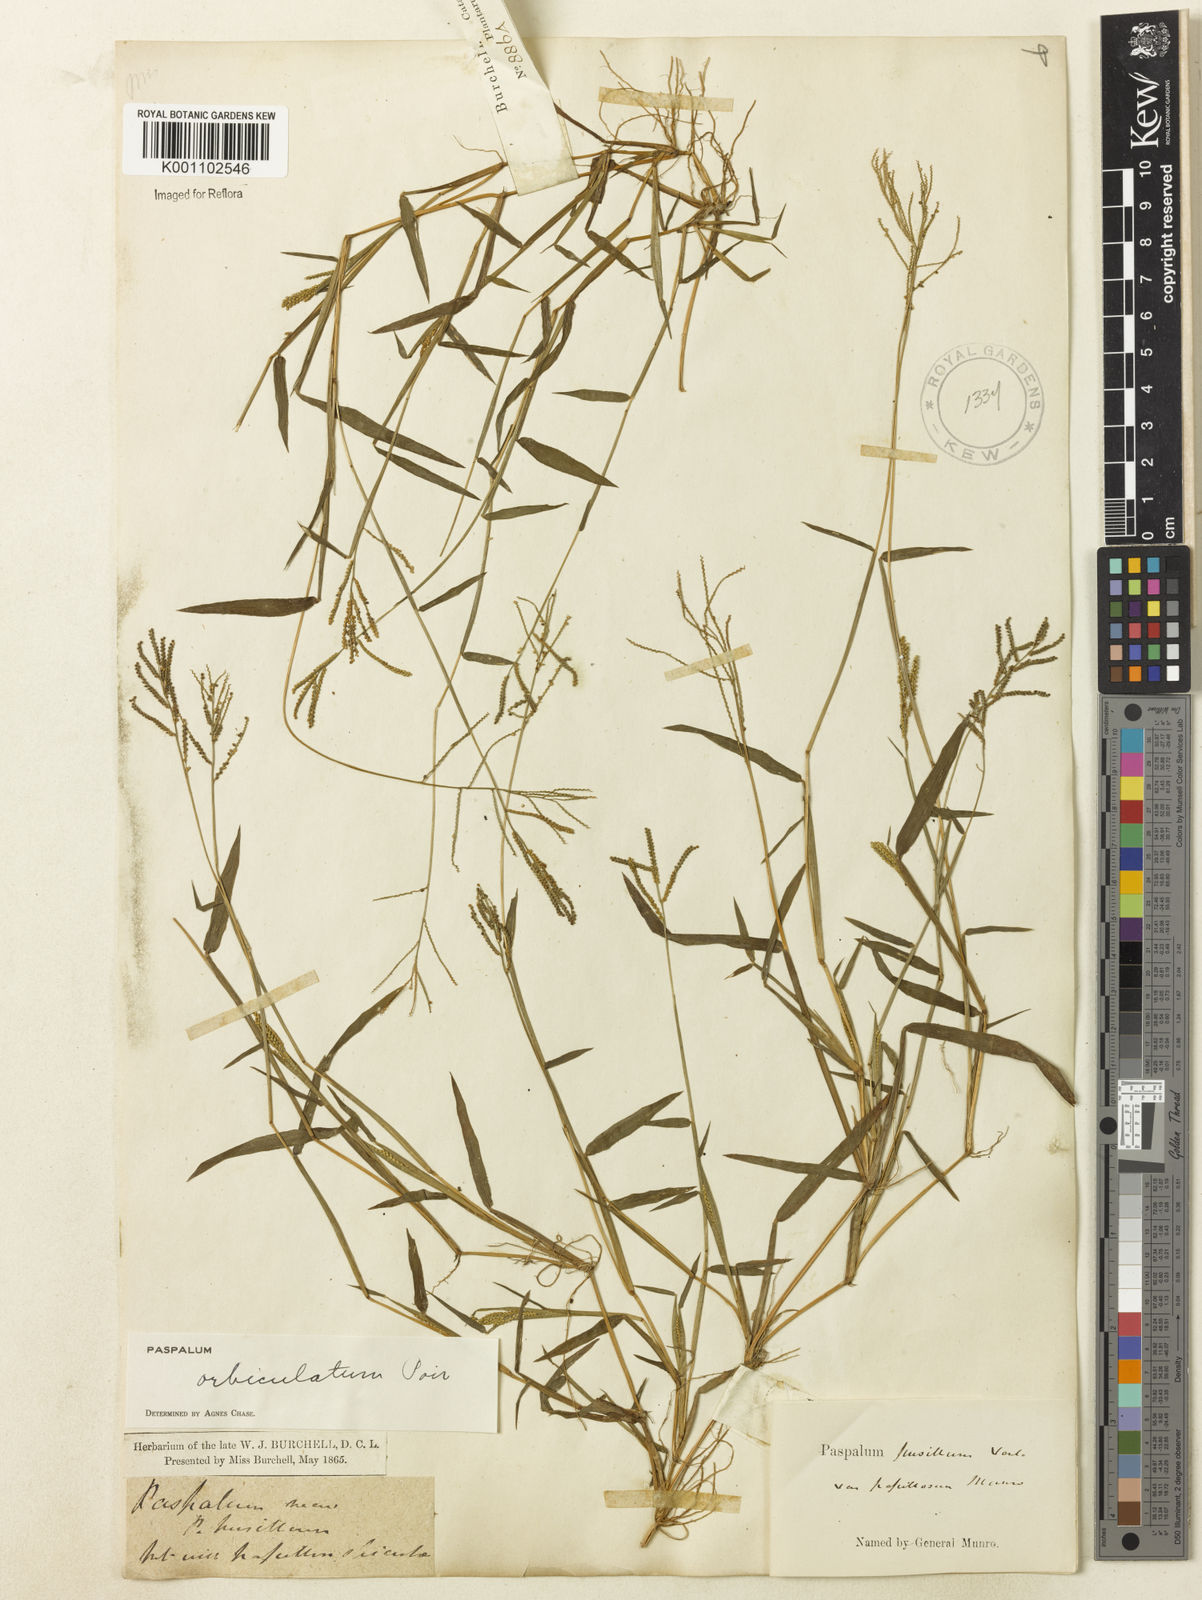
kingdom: Plantae
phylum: Tracheophyta
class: Liliopsida
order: Poales
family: Poaceae
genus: Paspalum
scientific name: Paspalum orbiculatum
